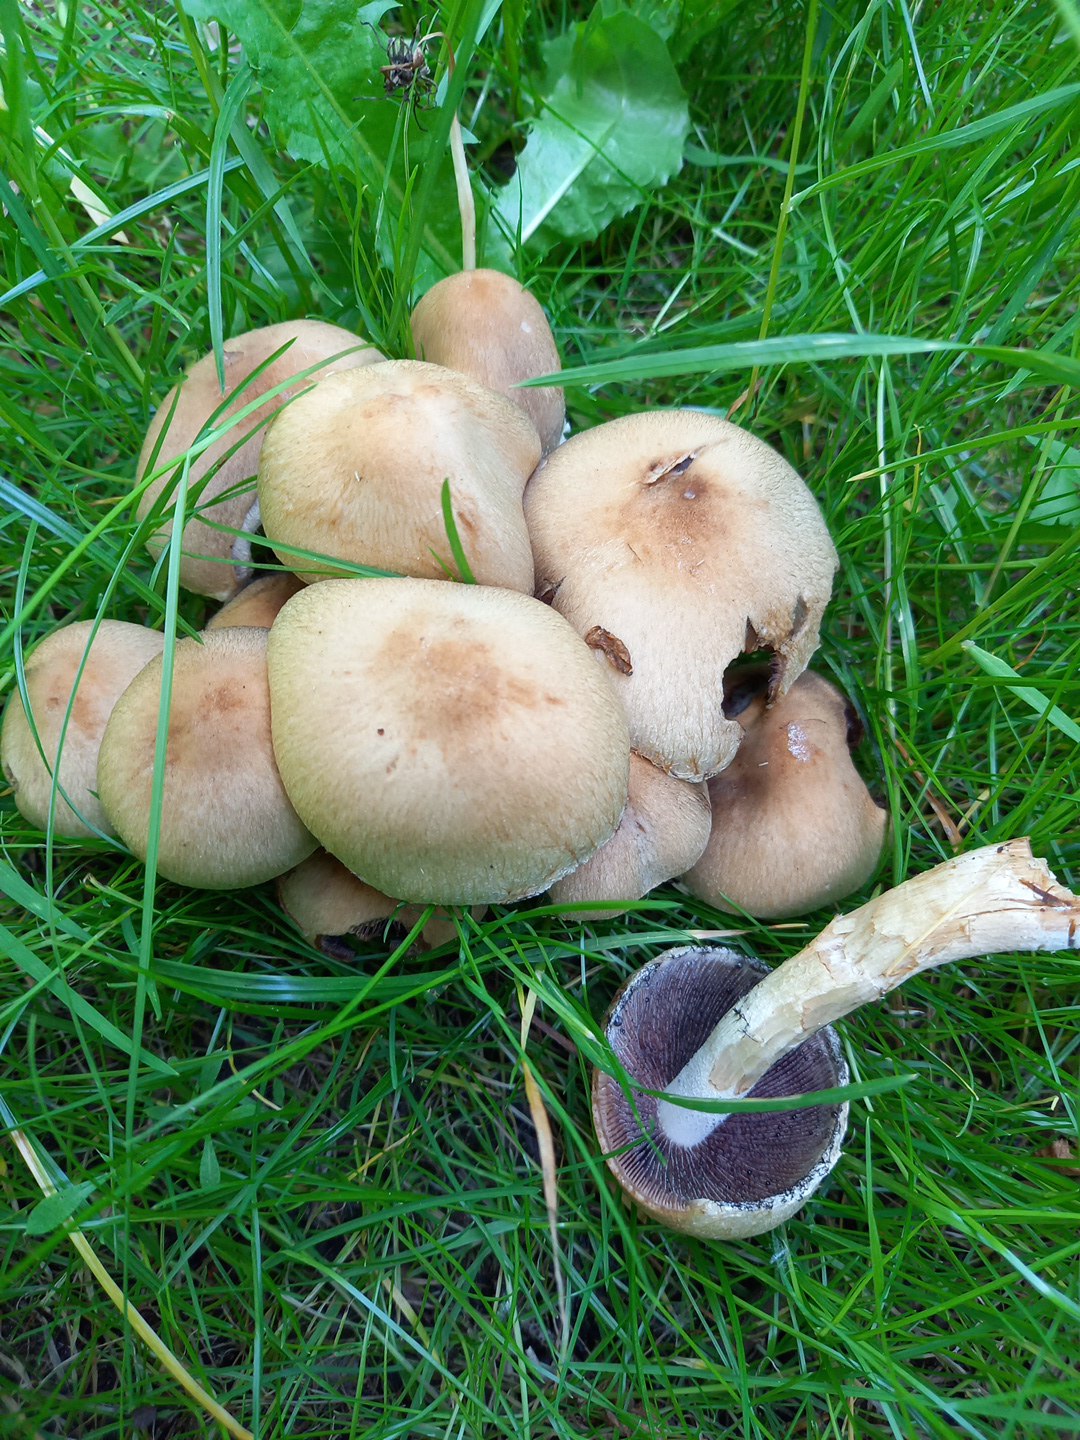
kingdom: Fungi
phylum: Basidiomycota
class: Agaricomycetes
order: Agaricales
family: Psathyrellaceae
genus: Lacrymaria
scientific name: Lacrymaria lacrymabunda
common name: grædende mørkhat
